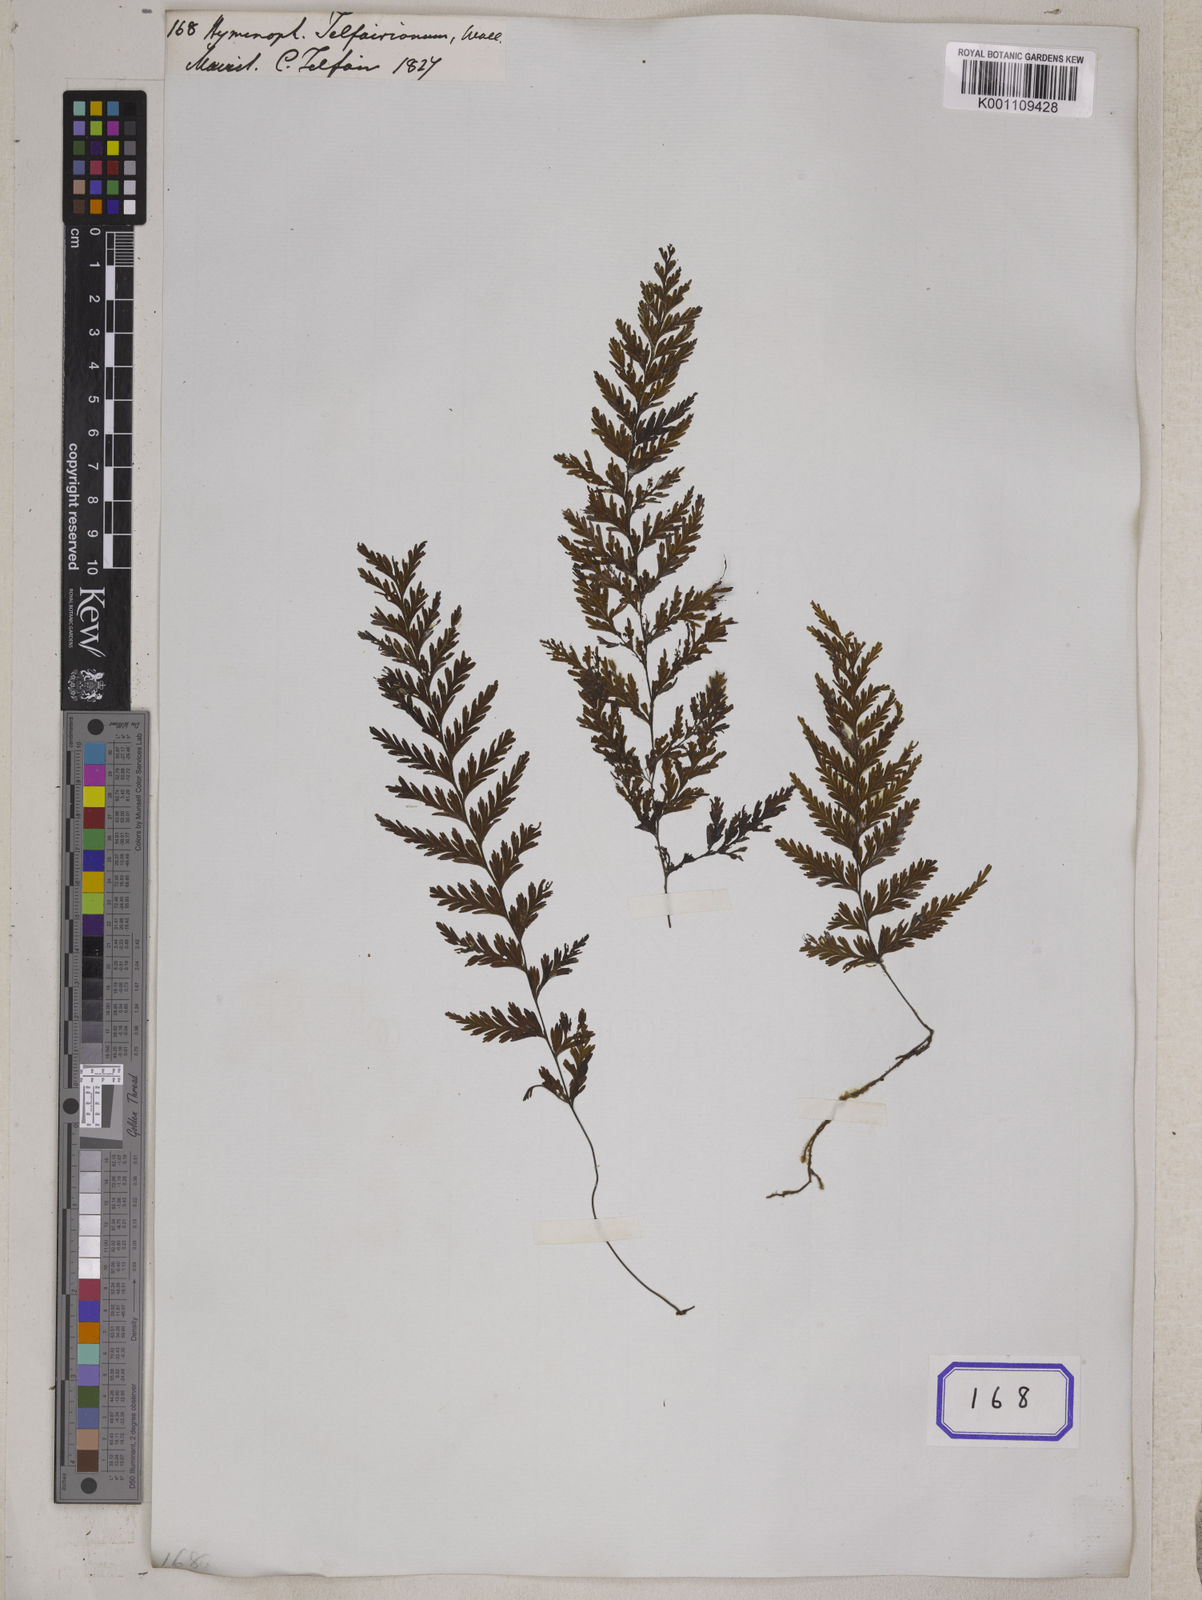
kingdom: Plantae
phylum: Tracheophyta
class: Polypodiopsida
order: Hymenophyllales
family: Hymenophyllaceae
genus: Hymenophyllum
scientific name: Hymenophyllum hygrometricum
